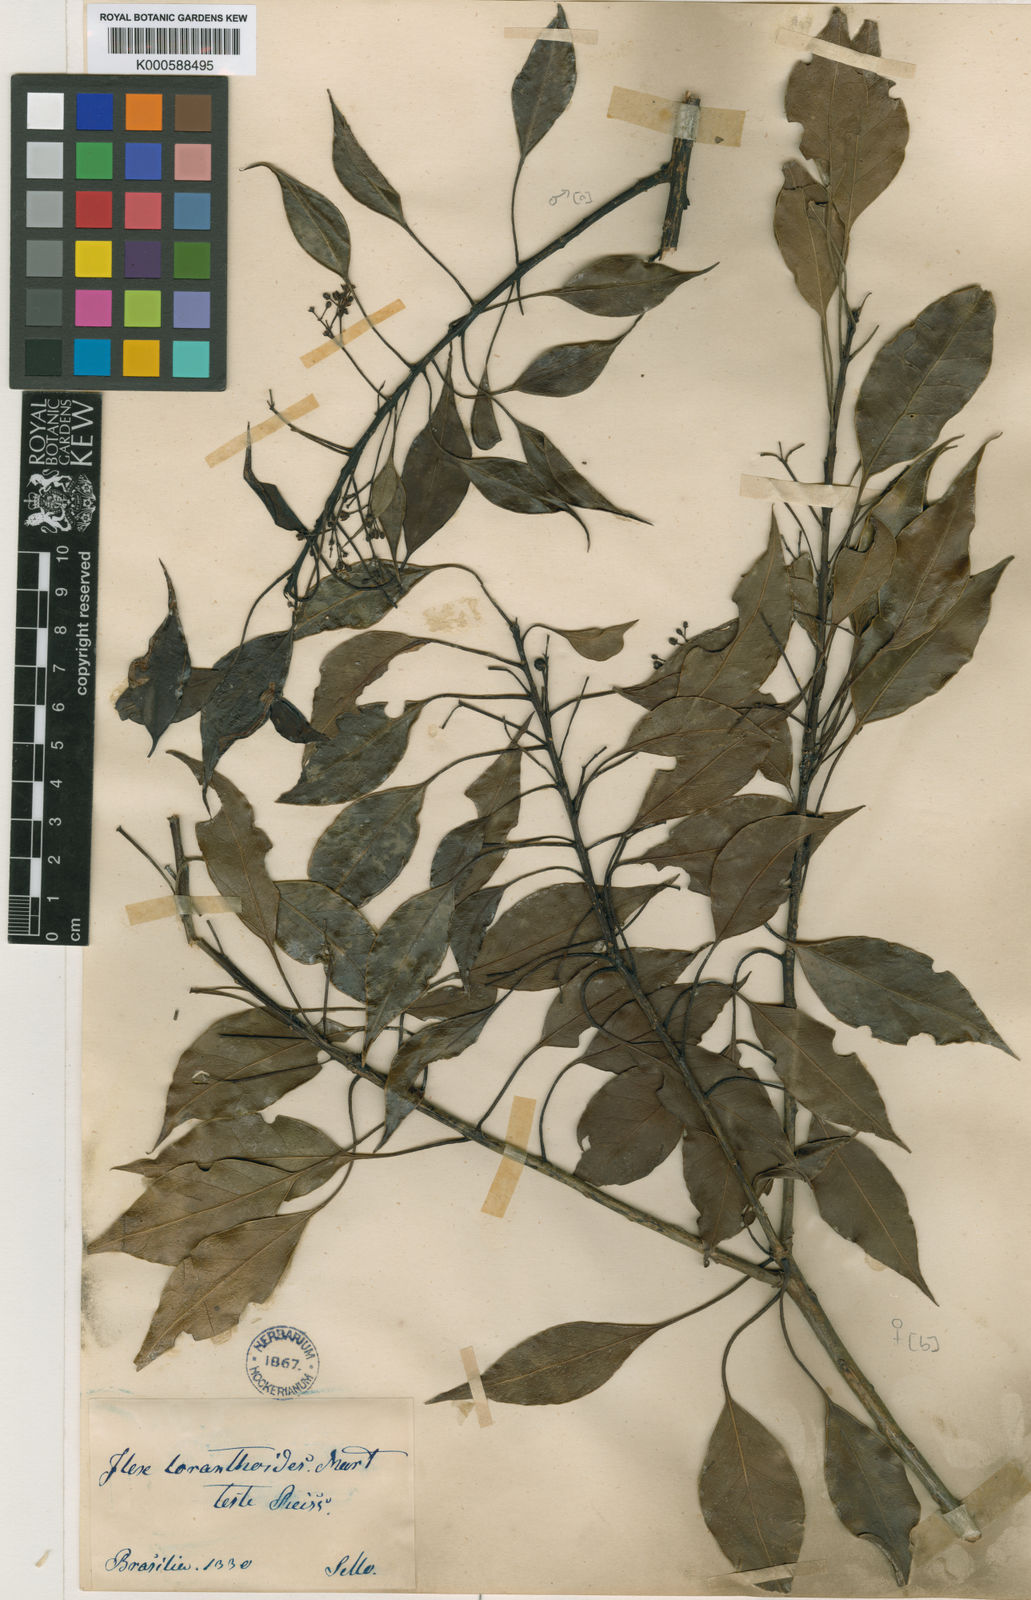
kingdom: Plantae
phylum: Tracheophyta
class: Magnoliopsida
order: Aquifoliales
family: Aquifoliaceae
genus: Ilex
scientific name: Ilex loranthoides
